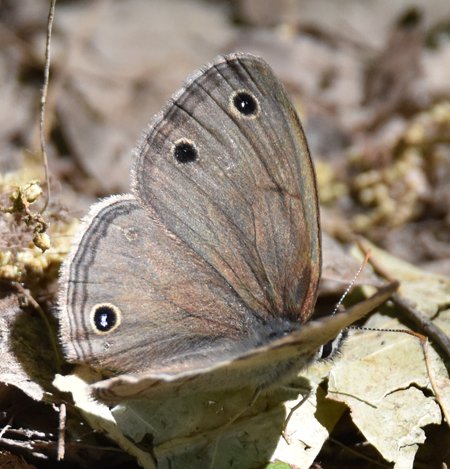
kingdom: Animalia
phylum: Arthropoda
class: Insecta
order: Lepidoptera
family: Nymphalidae
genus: Euptychia
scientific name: Euptychia cymela
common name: Little Wood Satyr
